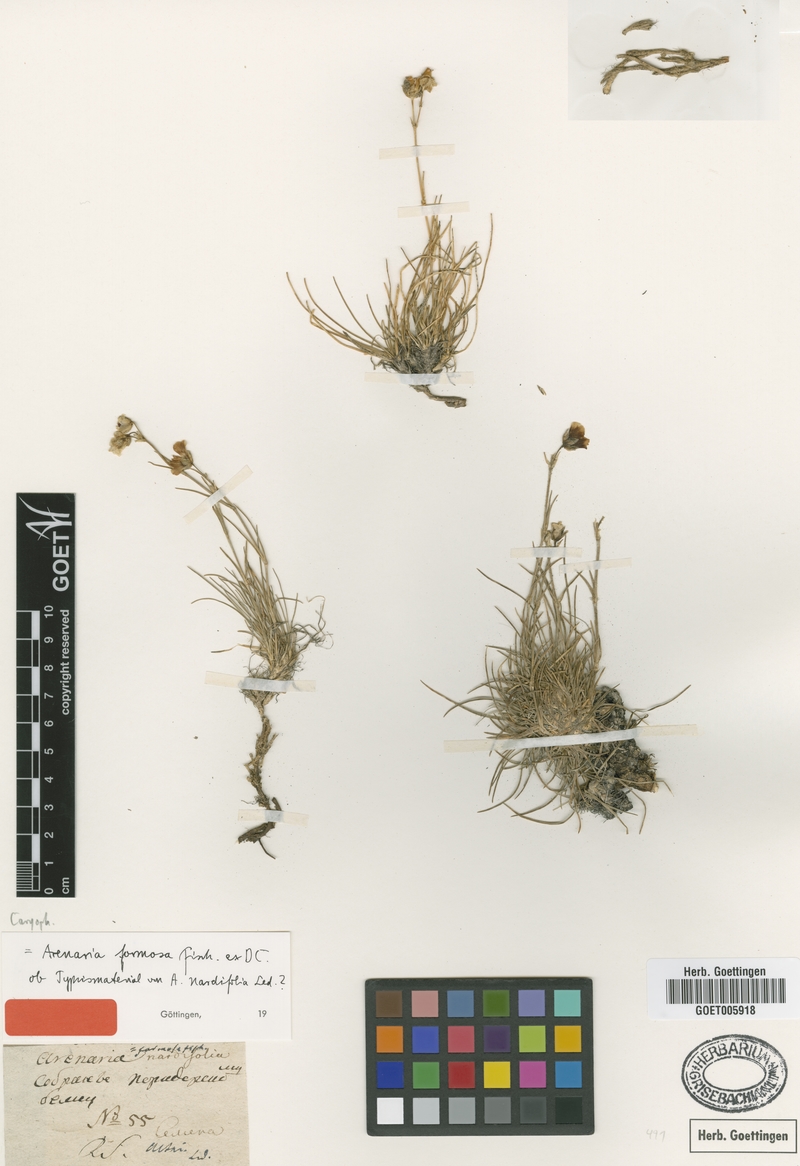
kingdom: Plantae
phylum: Tracheophyta
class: Magnoliopsida
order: Caryophyllales
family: Caryophyllaceae
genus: Eremogone
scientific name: Eremogone formosa
